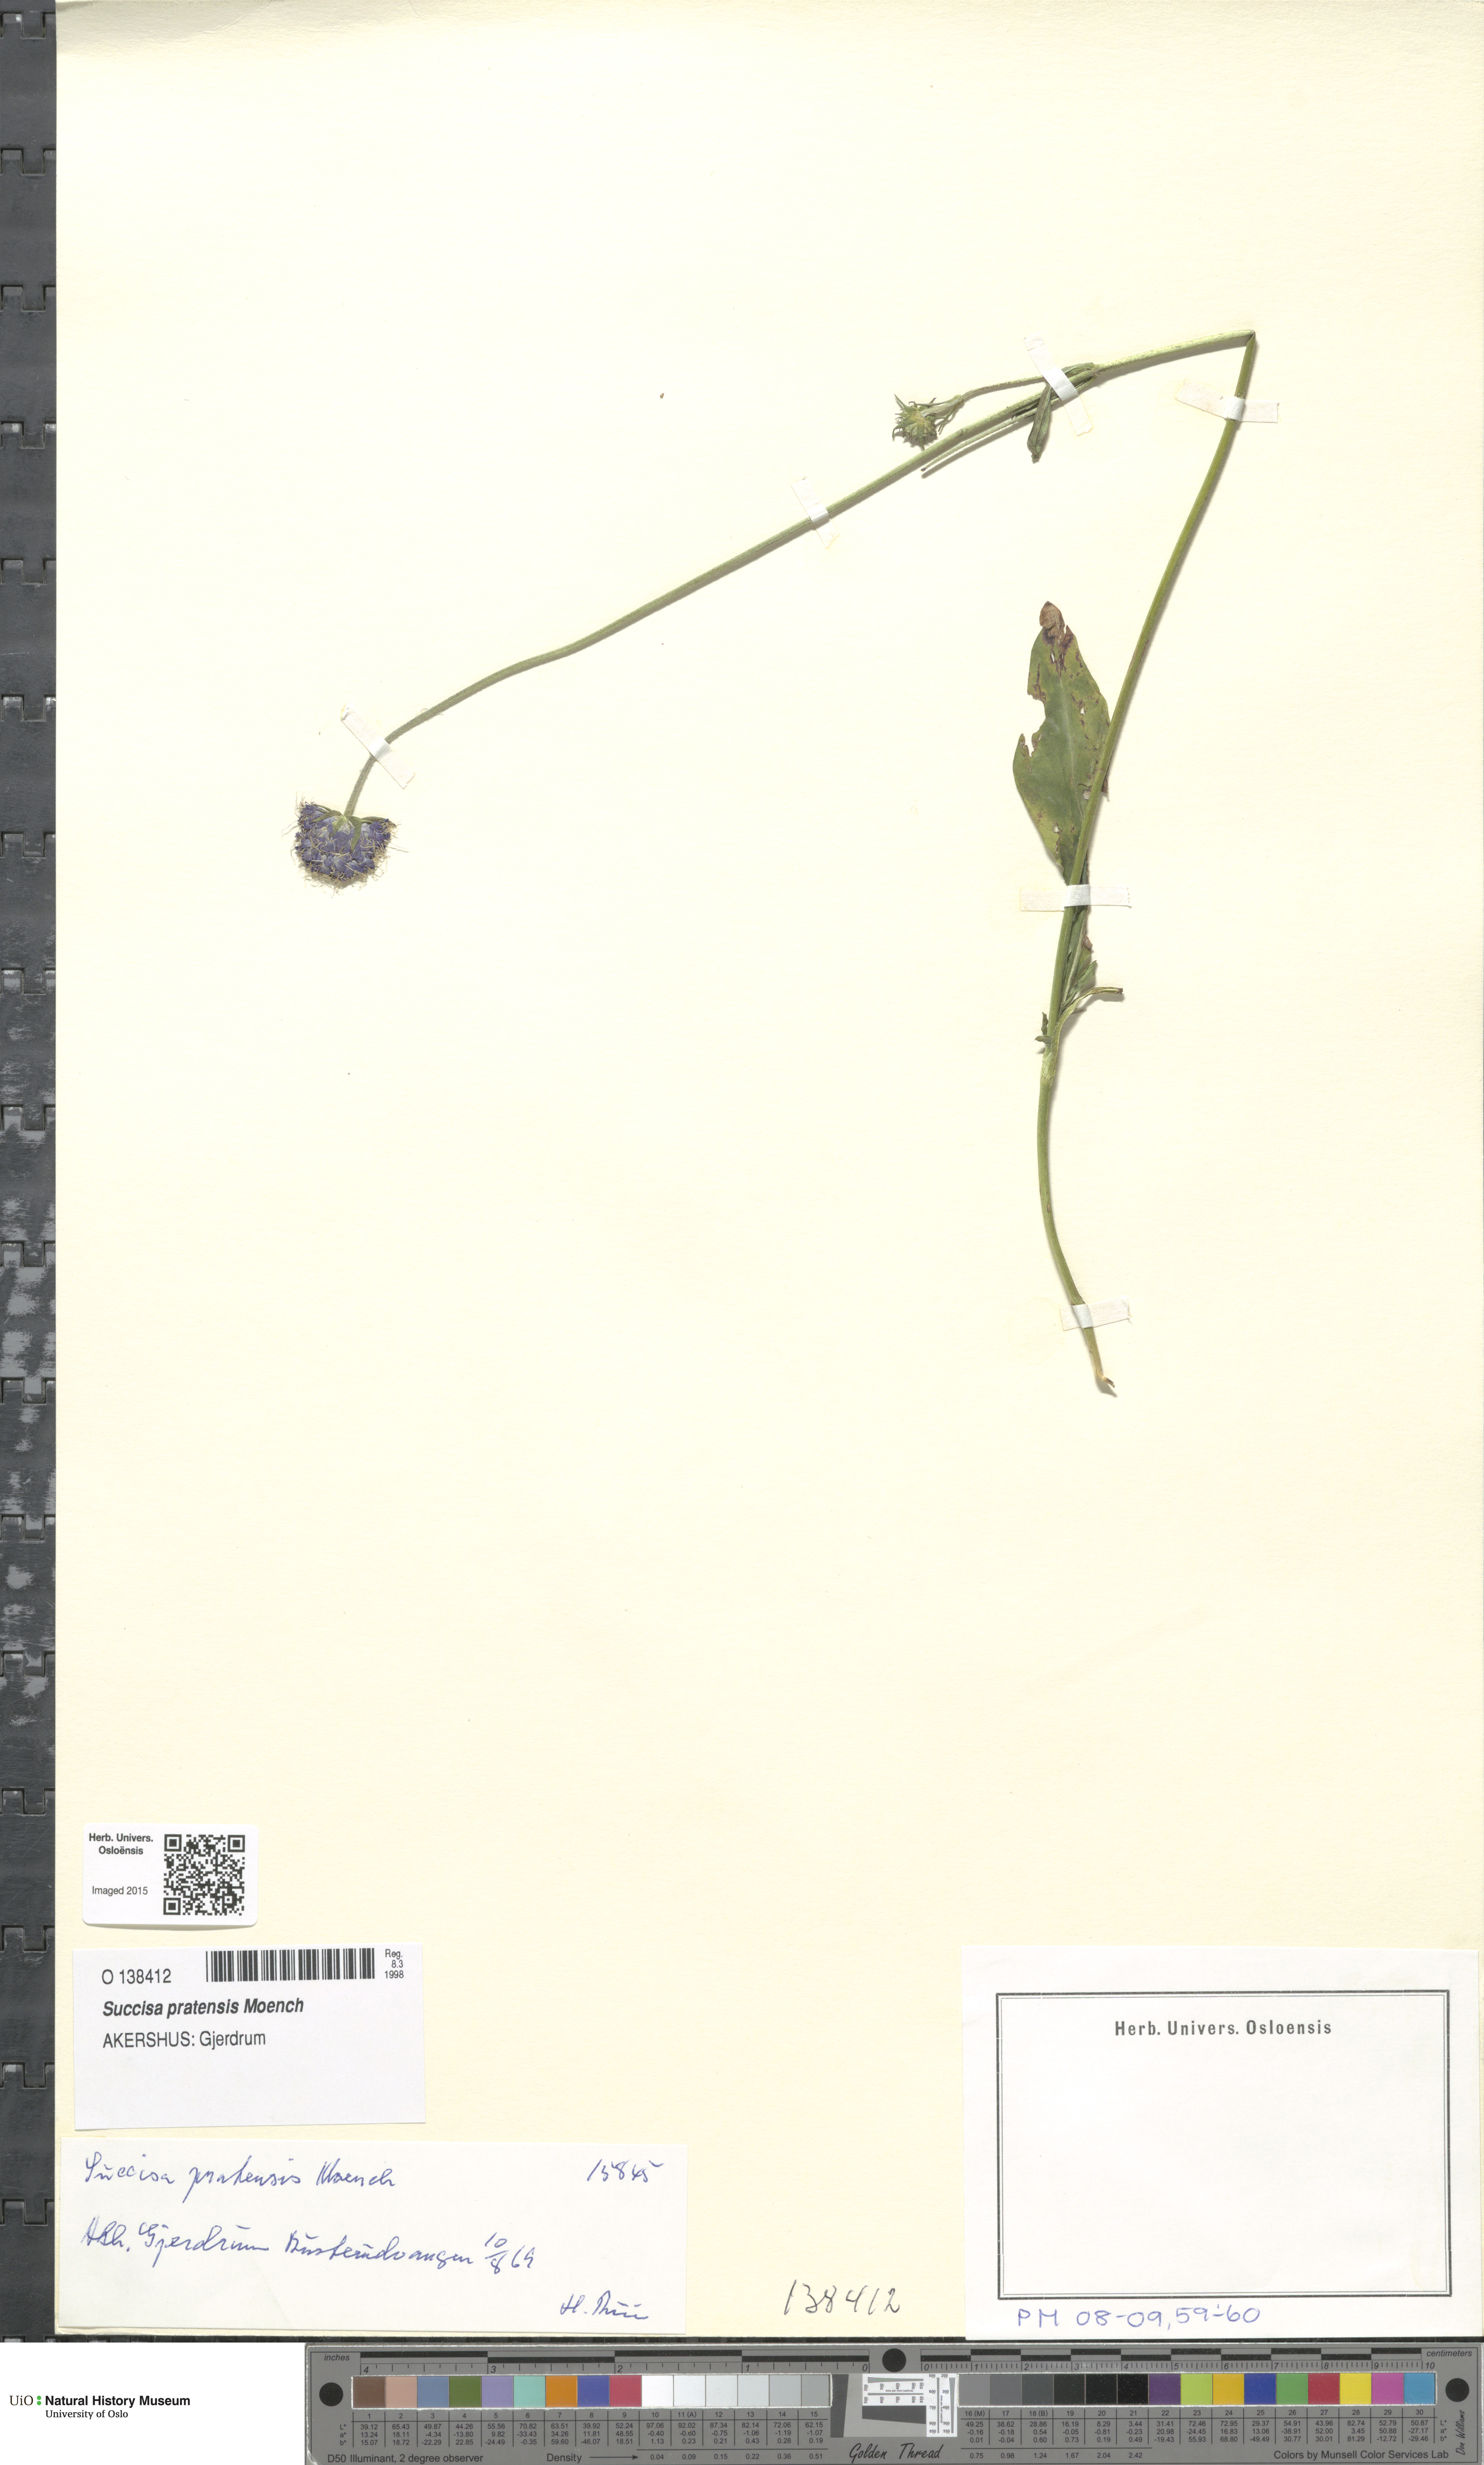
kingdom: Plantae
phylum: Tracheophyta
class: Magnoliopsida
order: Dipsacales
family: Caprifoliaceae
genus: Succisa
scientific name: Succisa pratensis
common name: Devil's-bit
